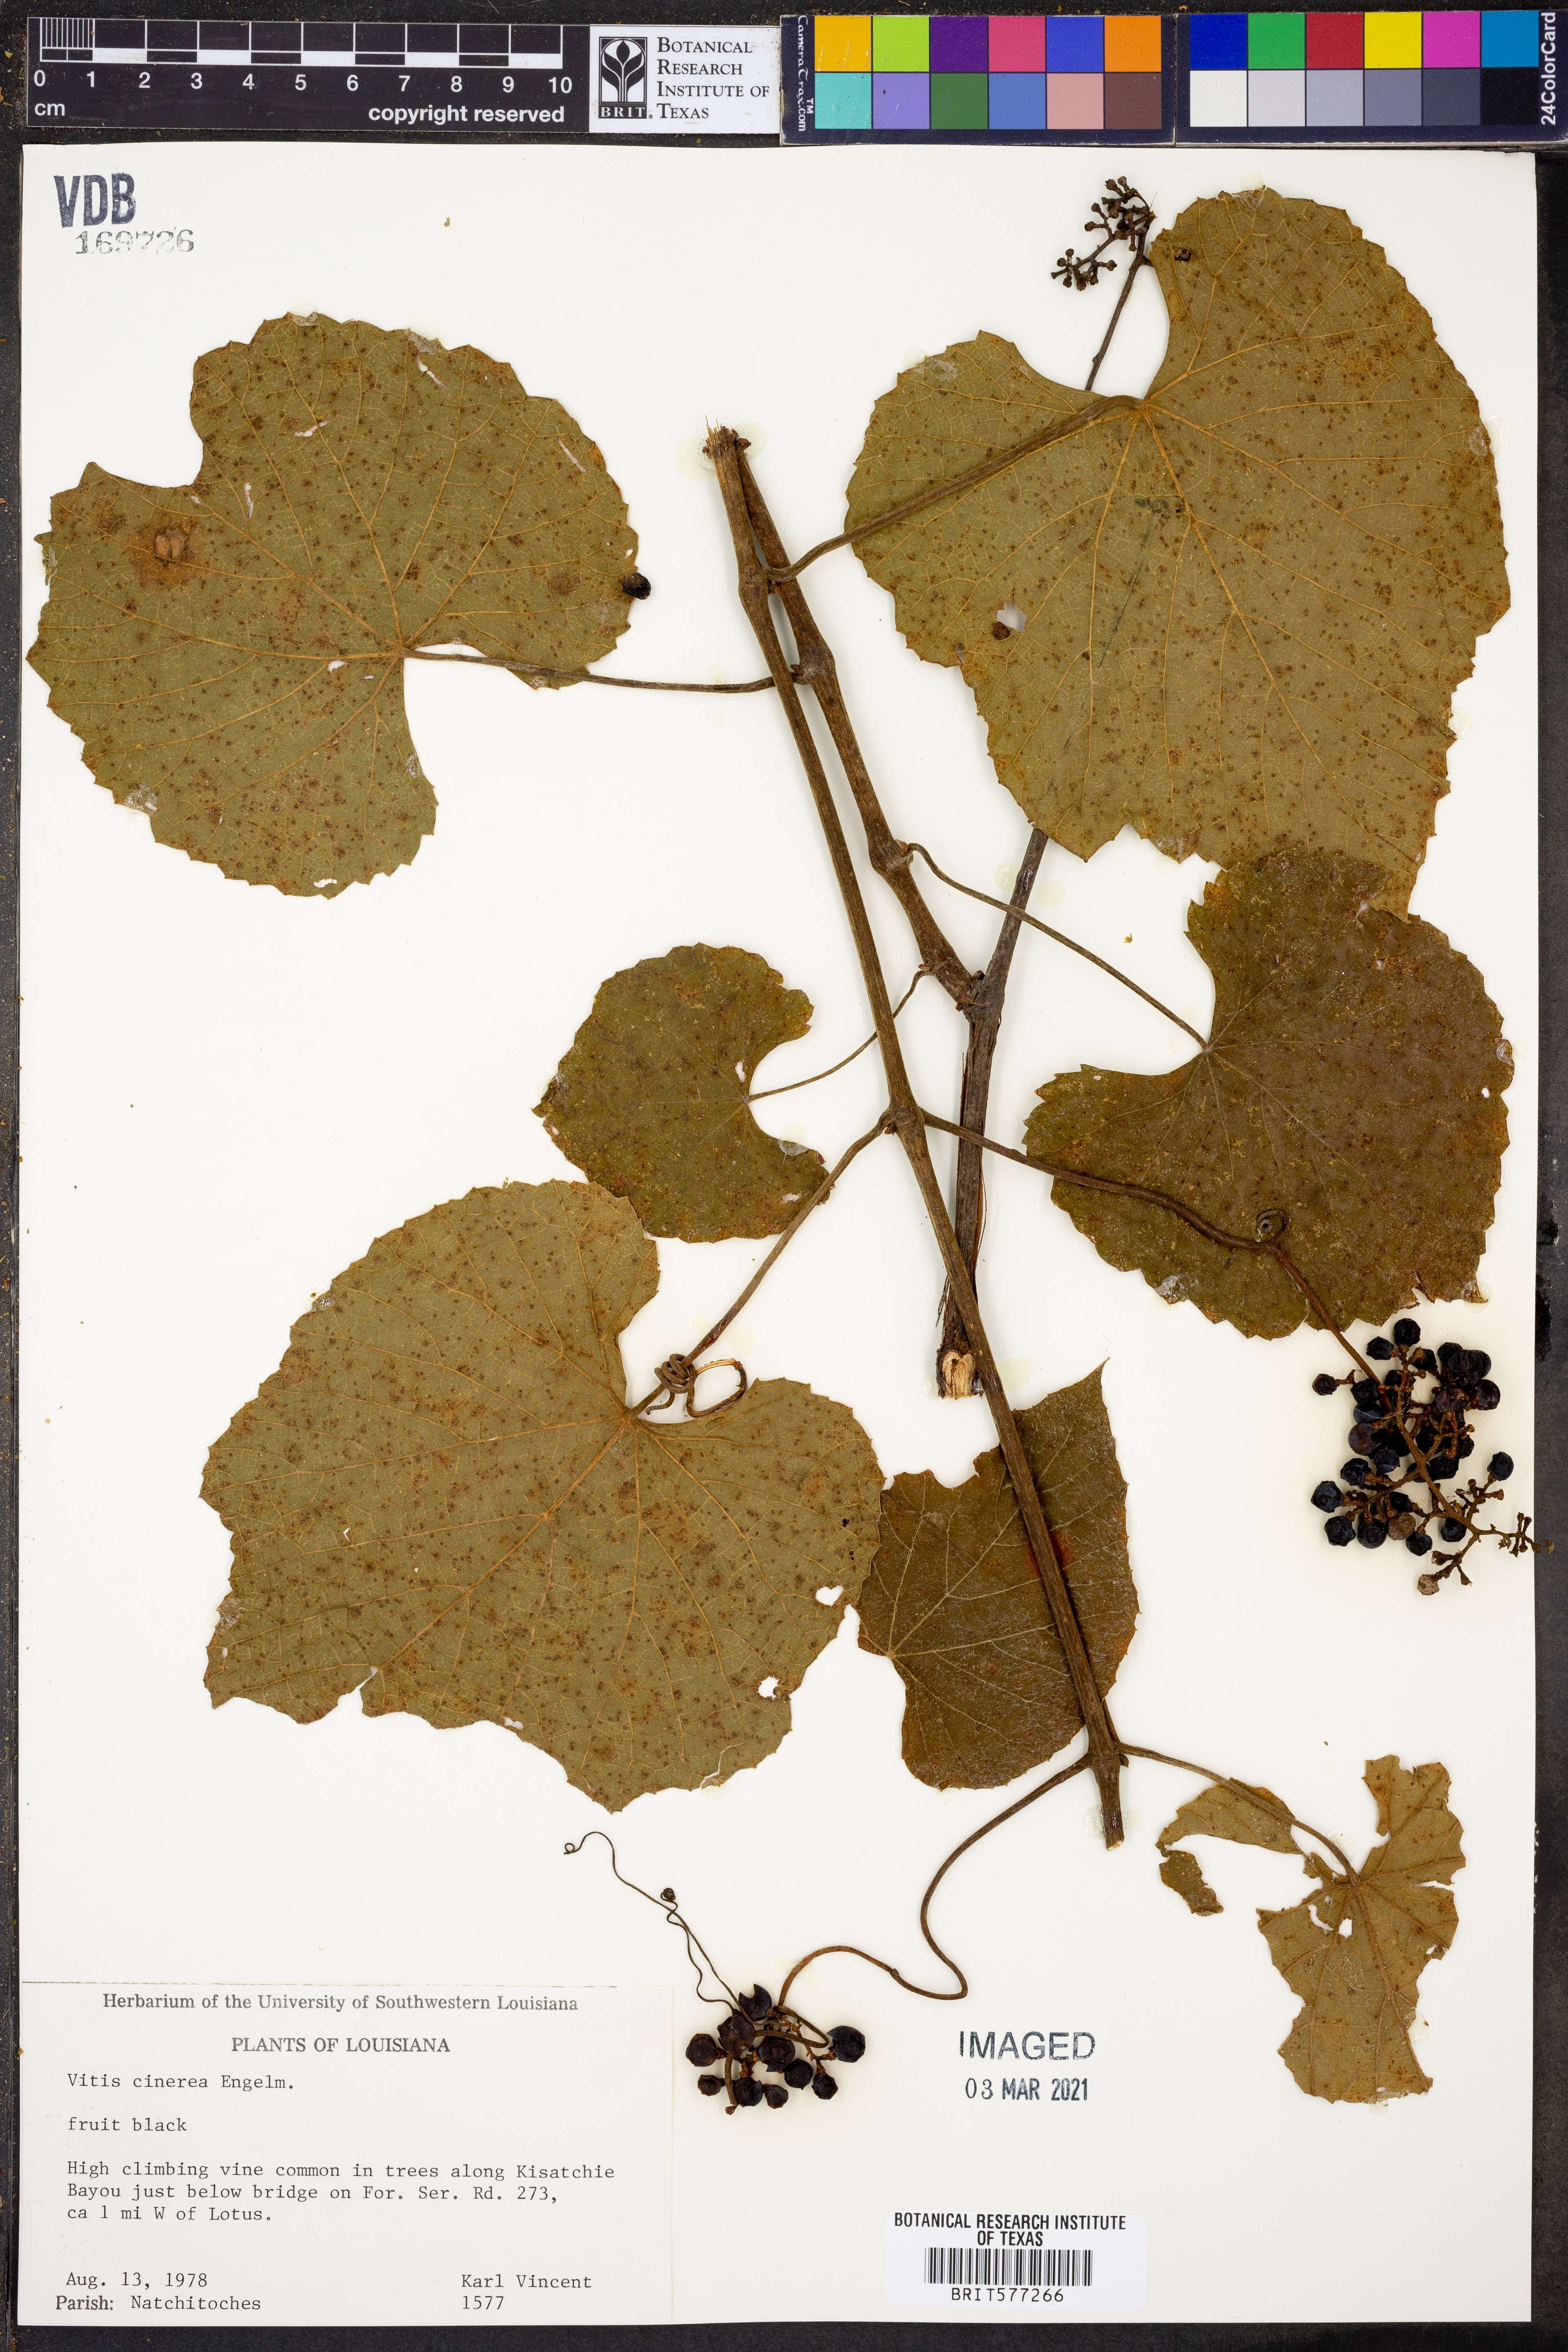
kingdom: Plantae
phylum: Tracheophyta
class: Magnoliopsida
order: Vitales
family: Vitaceae
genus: Vitis
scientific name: Vitis cinerea
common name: Ashy grape
